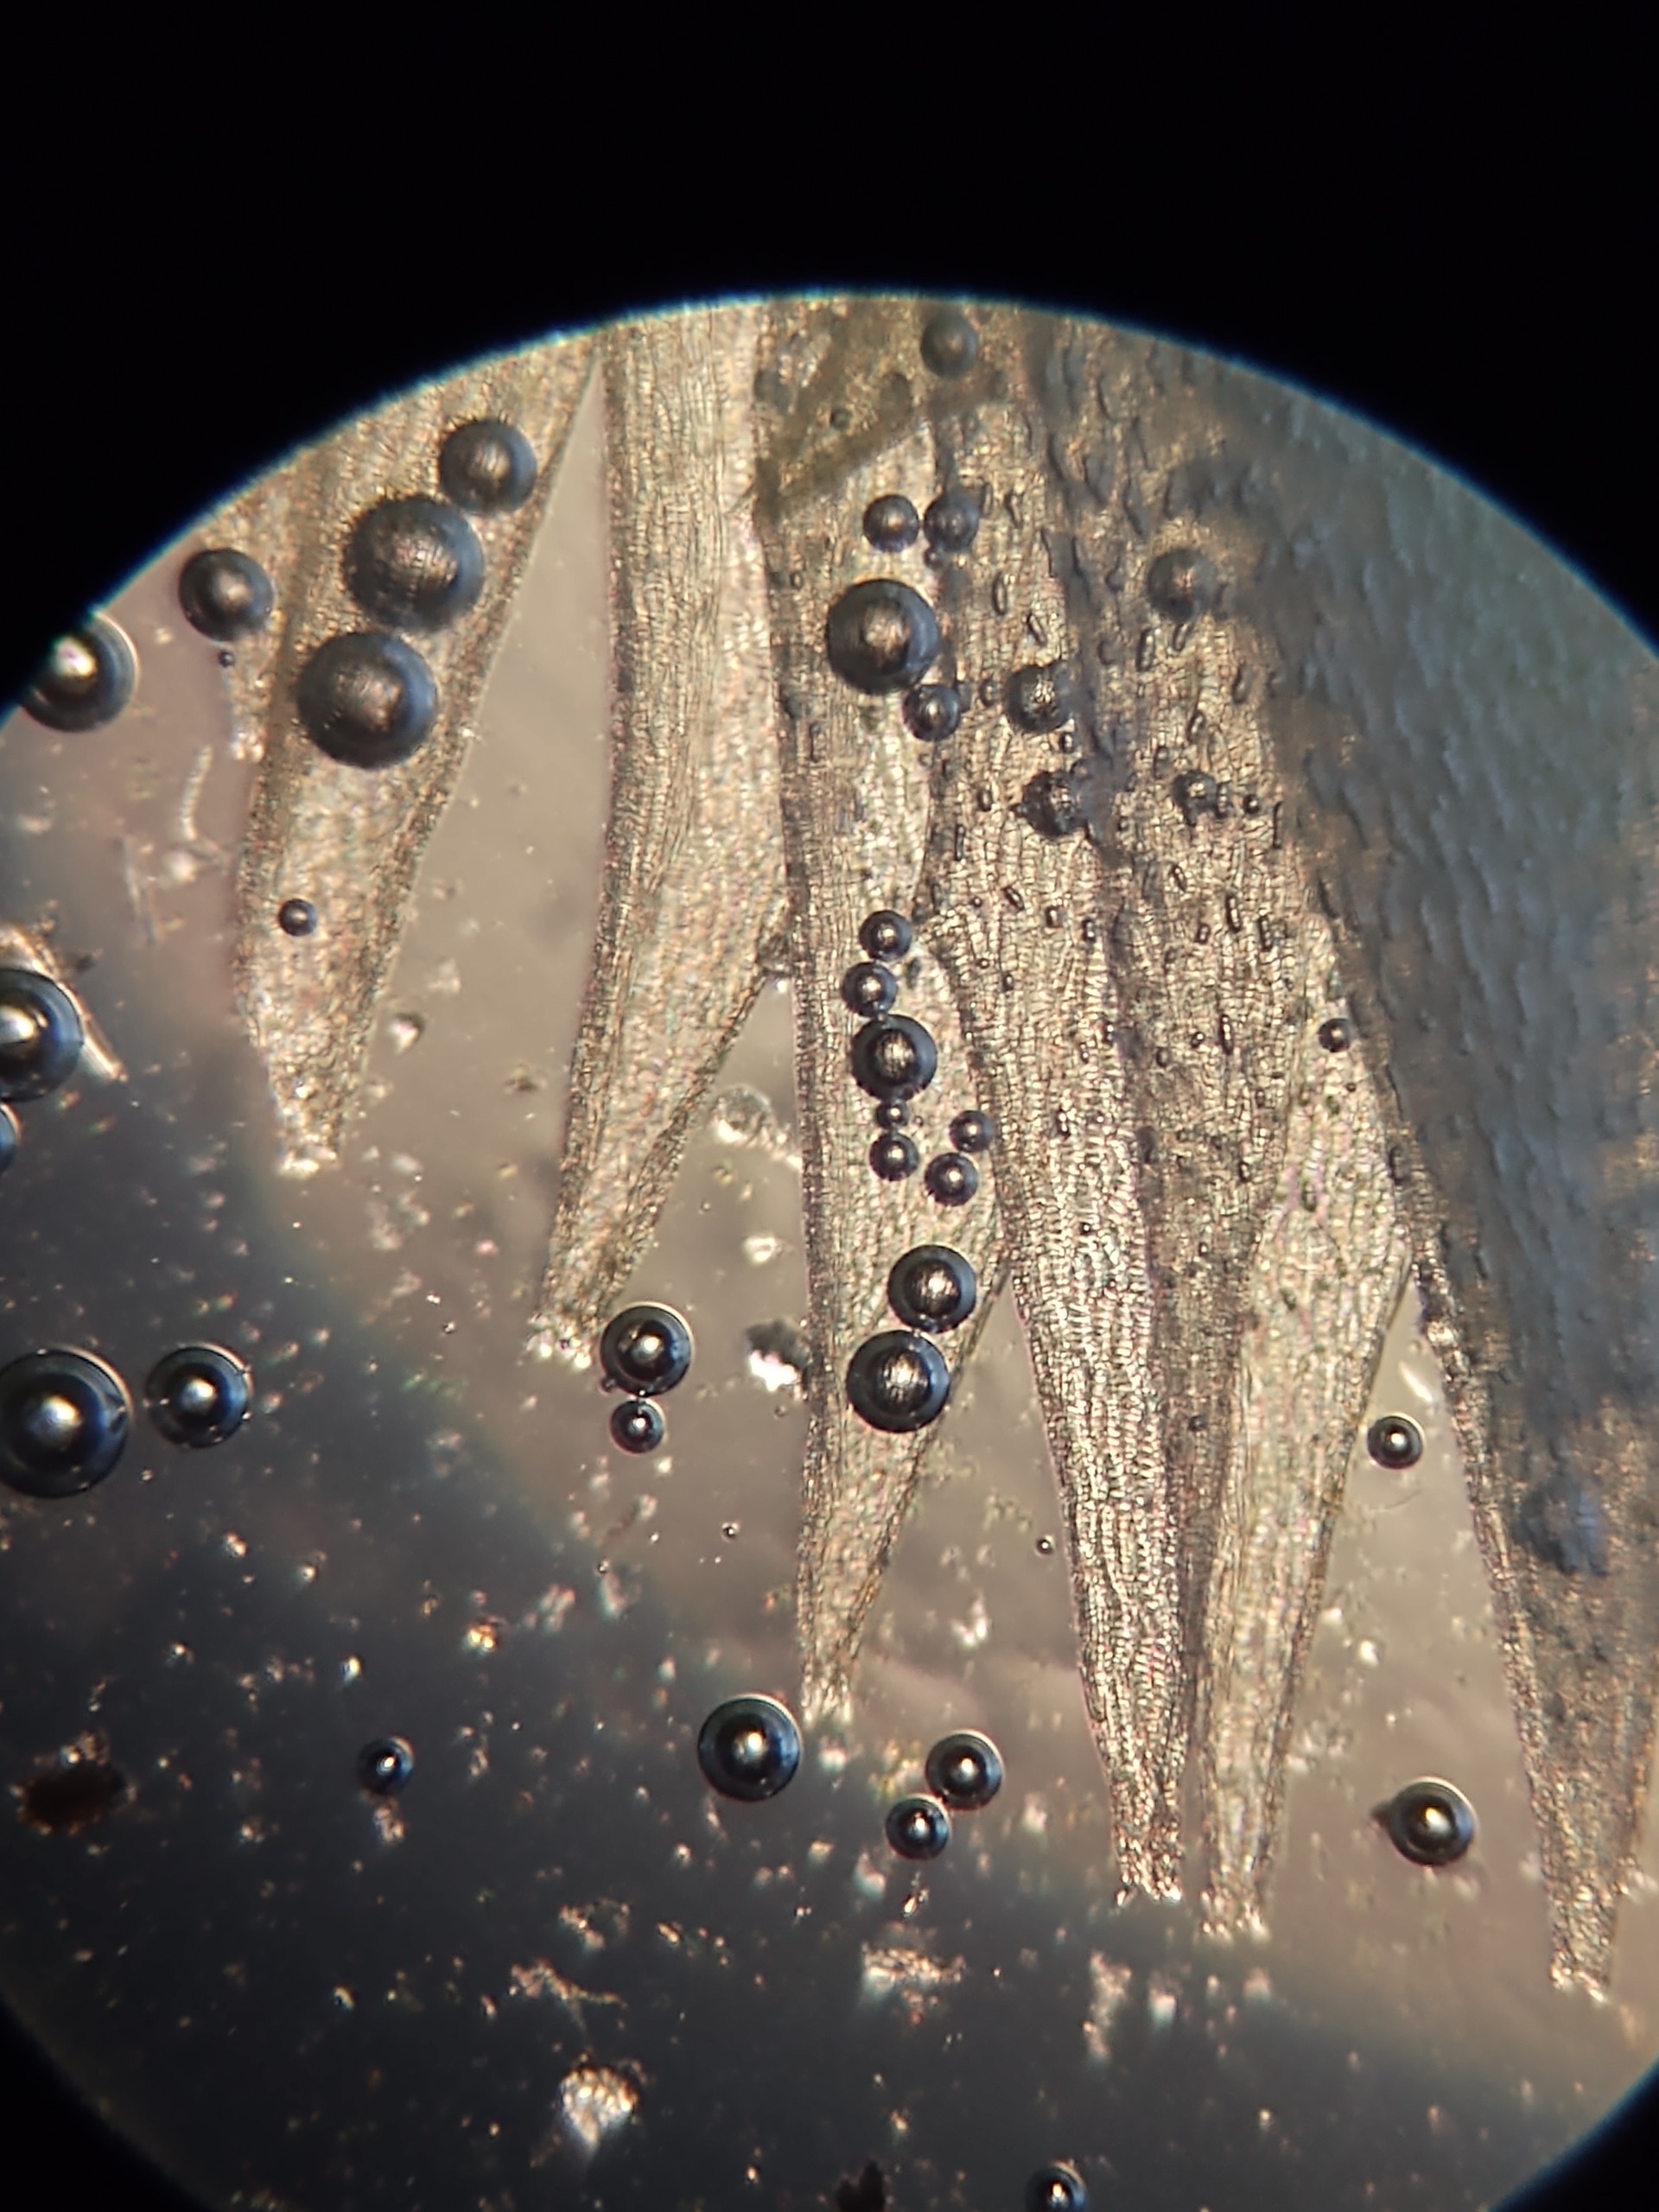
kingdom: Plantae
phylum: Bryophyta
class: Sphagnopsida
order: Sphagnales
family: Sphagnaceae
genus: Sphagnum
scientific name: Sphagnum cuspidatum
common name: Pjusket tørvemos
